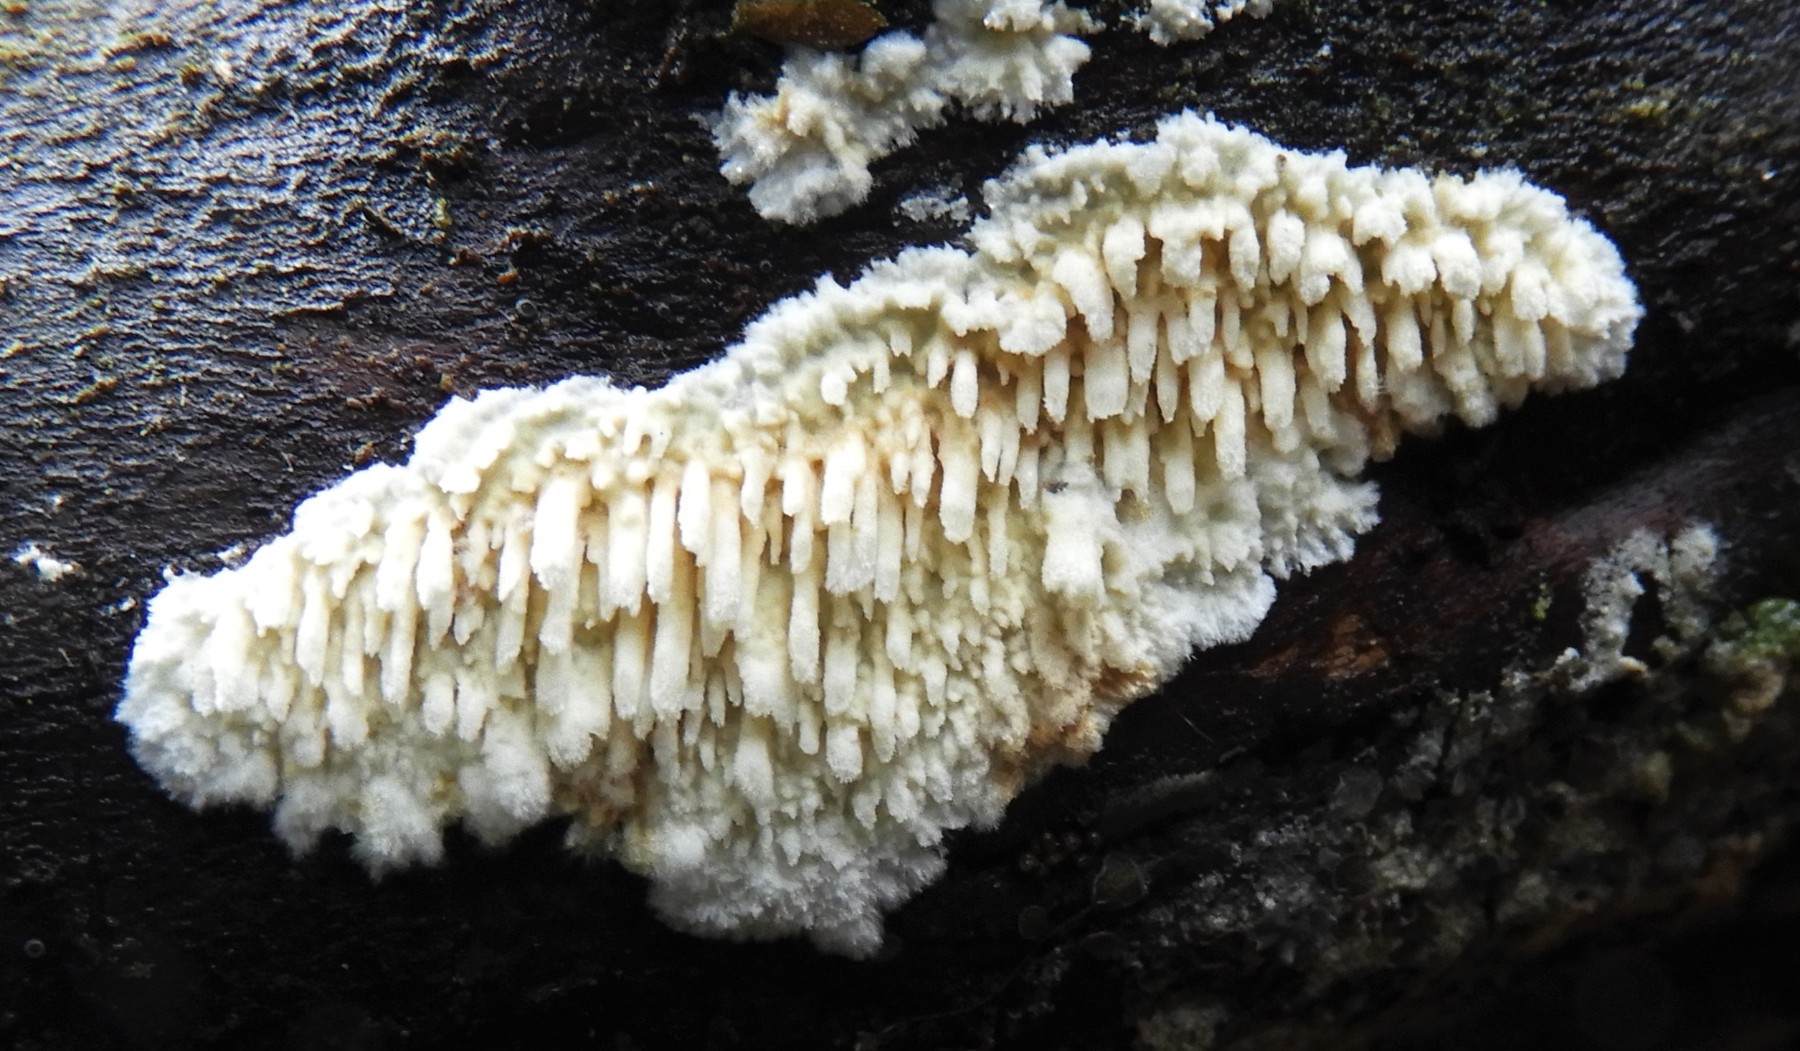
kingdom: Fungi
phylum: Basidiomycota
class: Agaricomycetes
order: Hymenochaetales
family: Schizoporaceae
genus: Xylodon
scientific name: Xylodon radula
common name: grovtandet kalkskind
